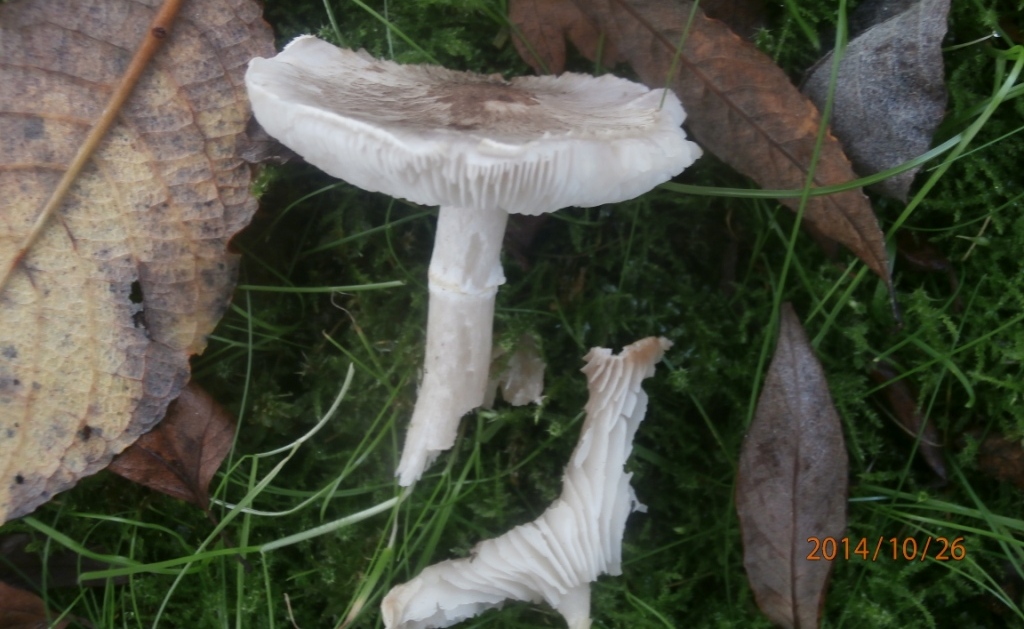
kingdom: Fungi
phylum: Basidiomycota
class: Agaricomycetes
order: Agaricales
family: Tricholomataceae
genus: Tricholoma
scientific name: Tricholoma cingulatum
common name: ring-ridderhat
